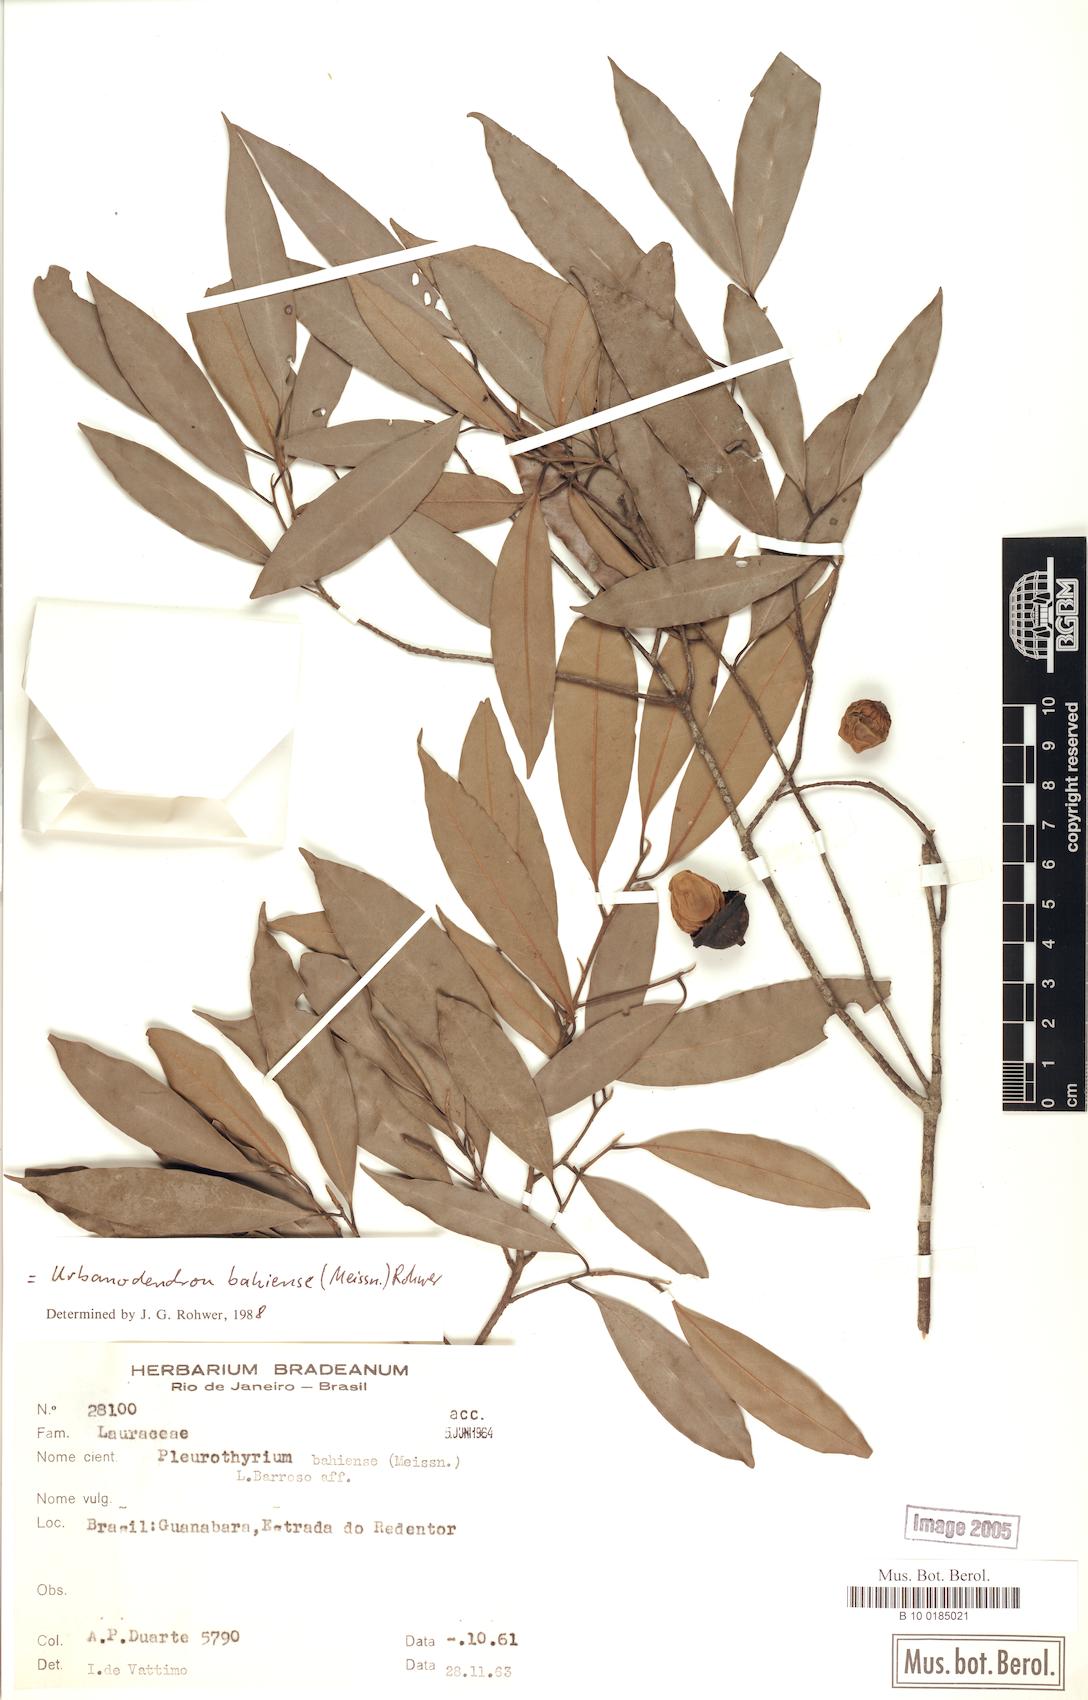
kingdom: Plantae
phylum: Tracheophyta
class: Magnoliopsida
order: Laurales
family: Lauraceae
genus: Urbanodendron
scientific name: Urbanodendron bahiense
